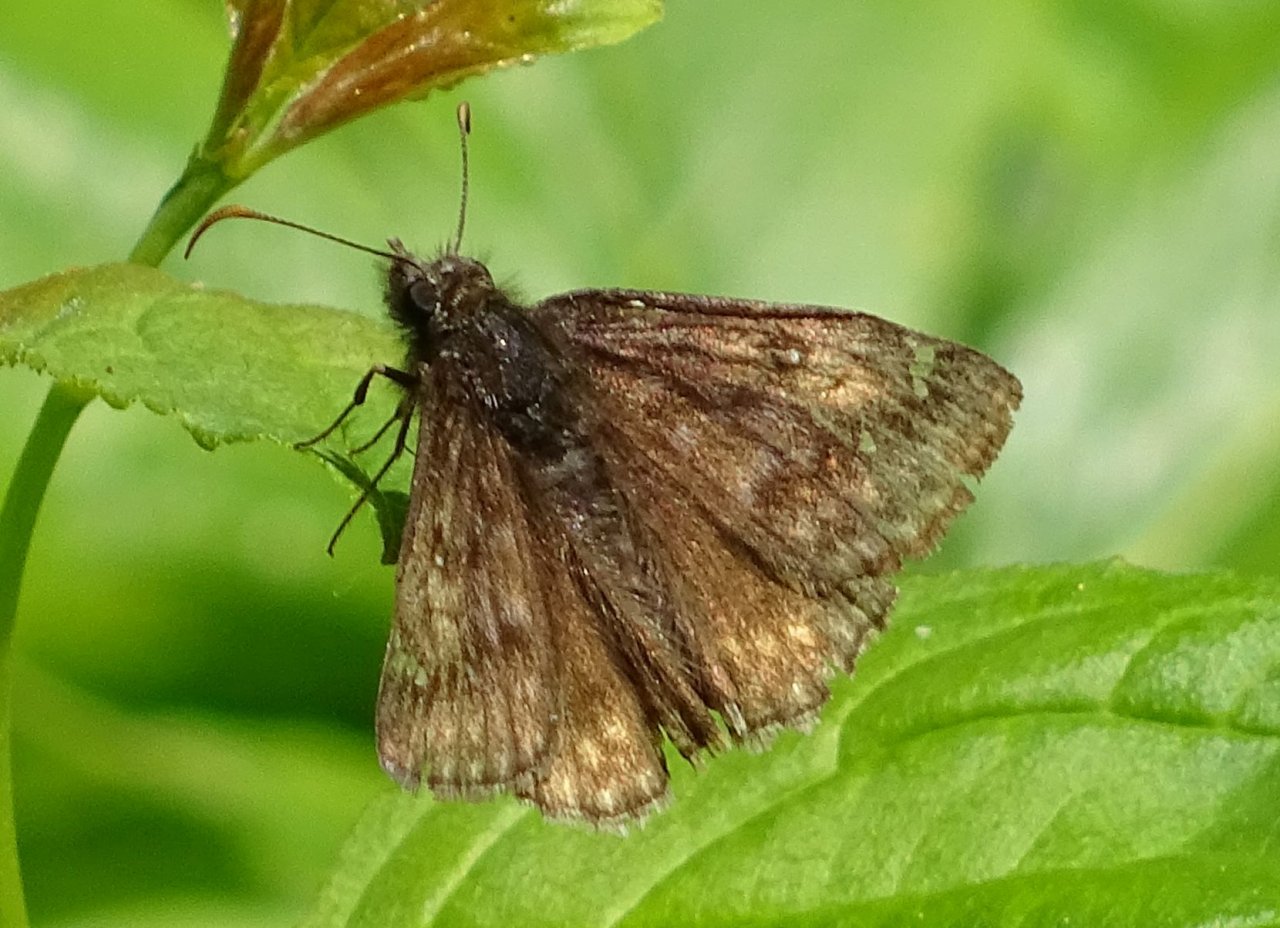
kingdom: Animalia
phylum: Arthropoda
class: Insecta
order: Lepidoptera
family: Hesperiidae
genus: Gesta
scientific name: Gesta
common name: Juvenal's Duskywing
